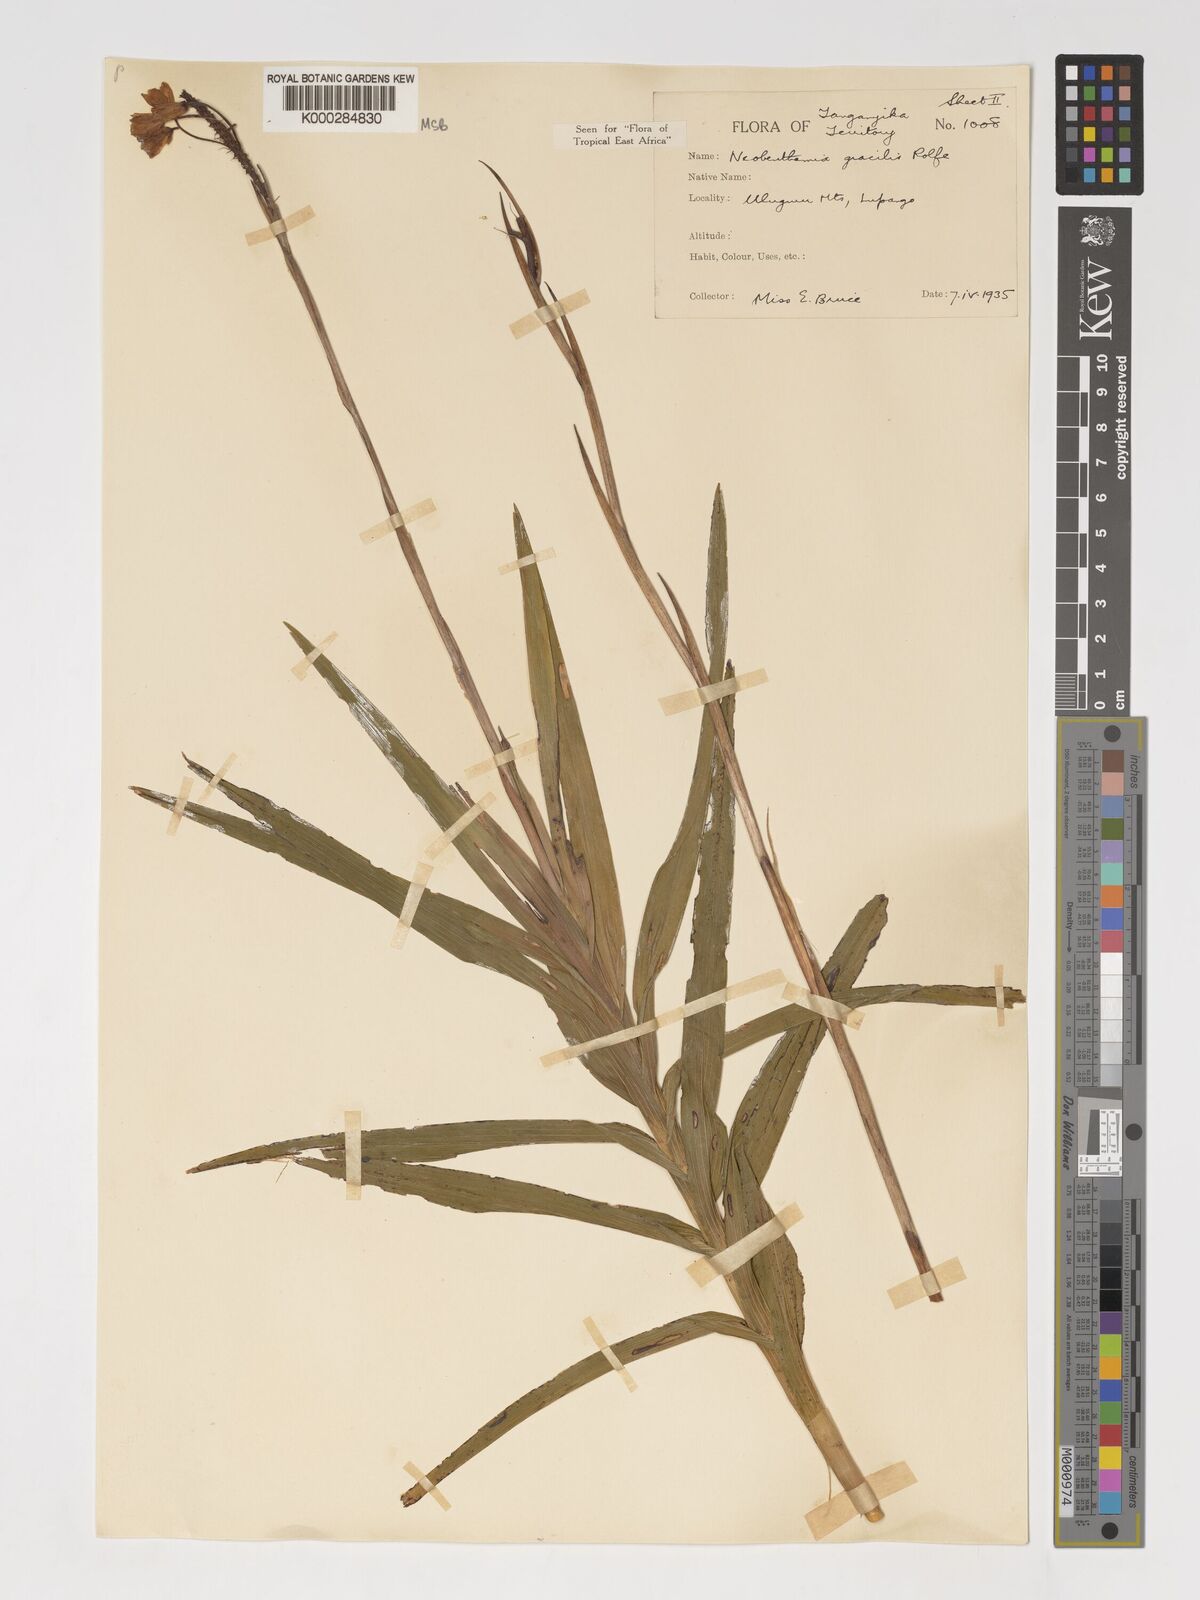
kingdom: Plantae
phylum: Tracheophyta
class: Liliopsida
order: Asparagales
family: Orchidaceae
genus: Polystachya
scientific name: Polystachya neobenthamia
